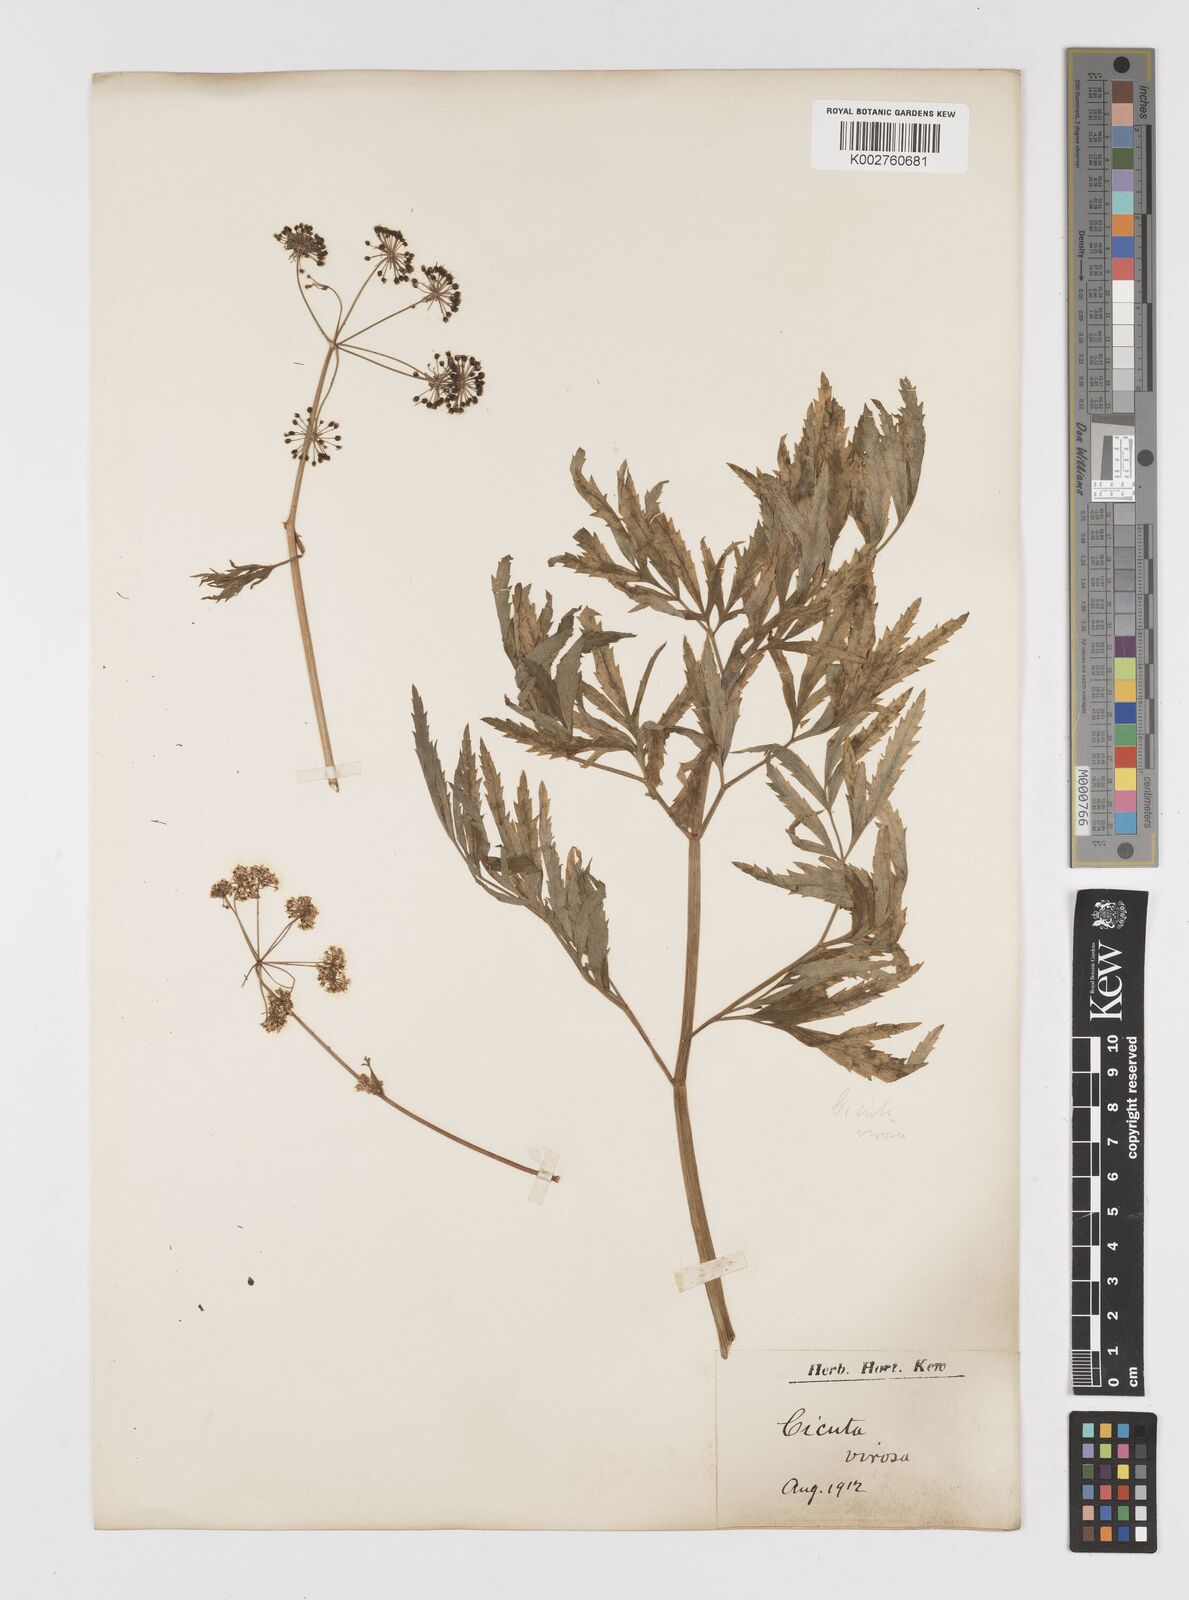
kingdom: Plantae
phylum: Tracheophyta
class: Magnoliopsida
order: Apiales
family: Apiaceae
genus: Cicuta
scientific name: Cicuta virosa
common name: Cowbane
